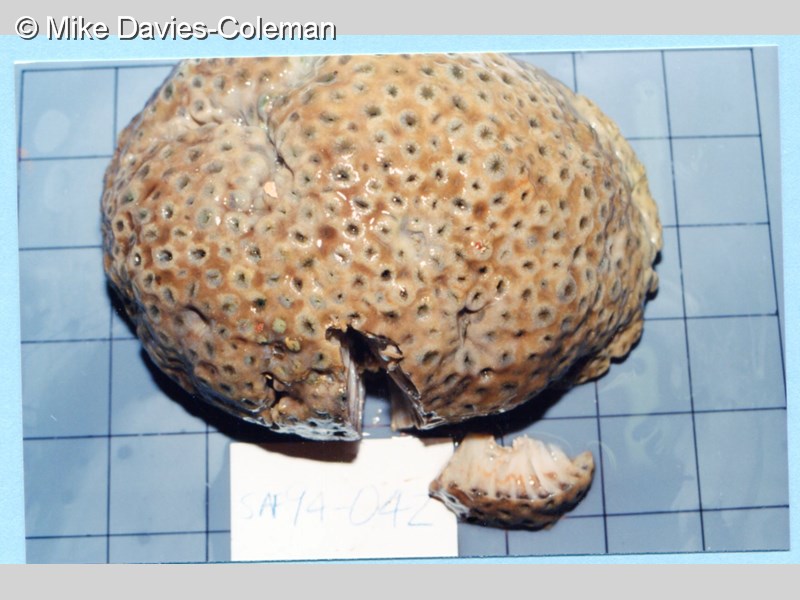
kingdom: Animalia
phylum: Cnidaria
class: Anthozoa
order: Zoantharia
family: Sphenopidae
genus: Palythoa
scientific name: Palythoa natalensis
